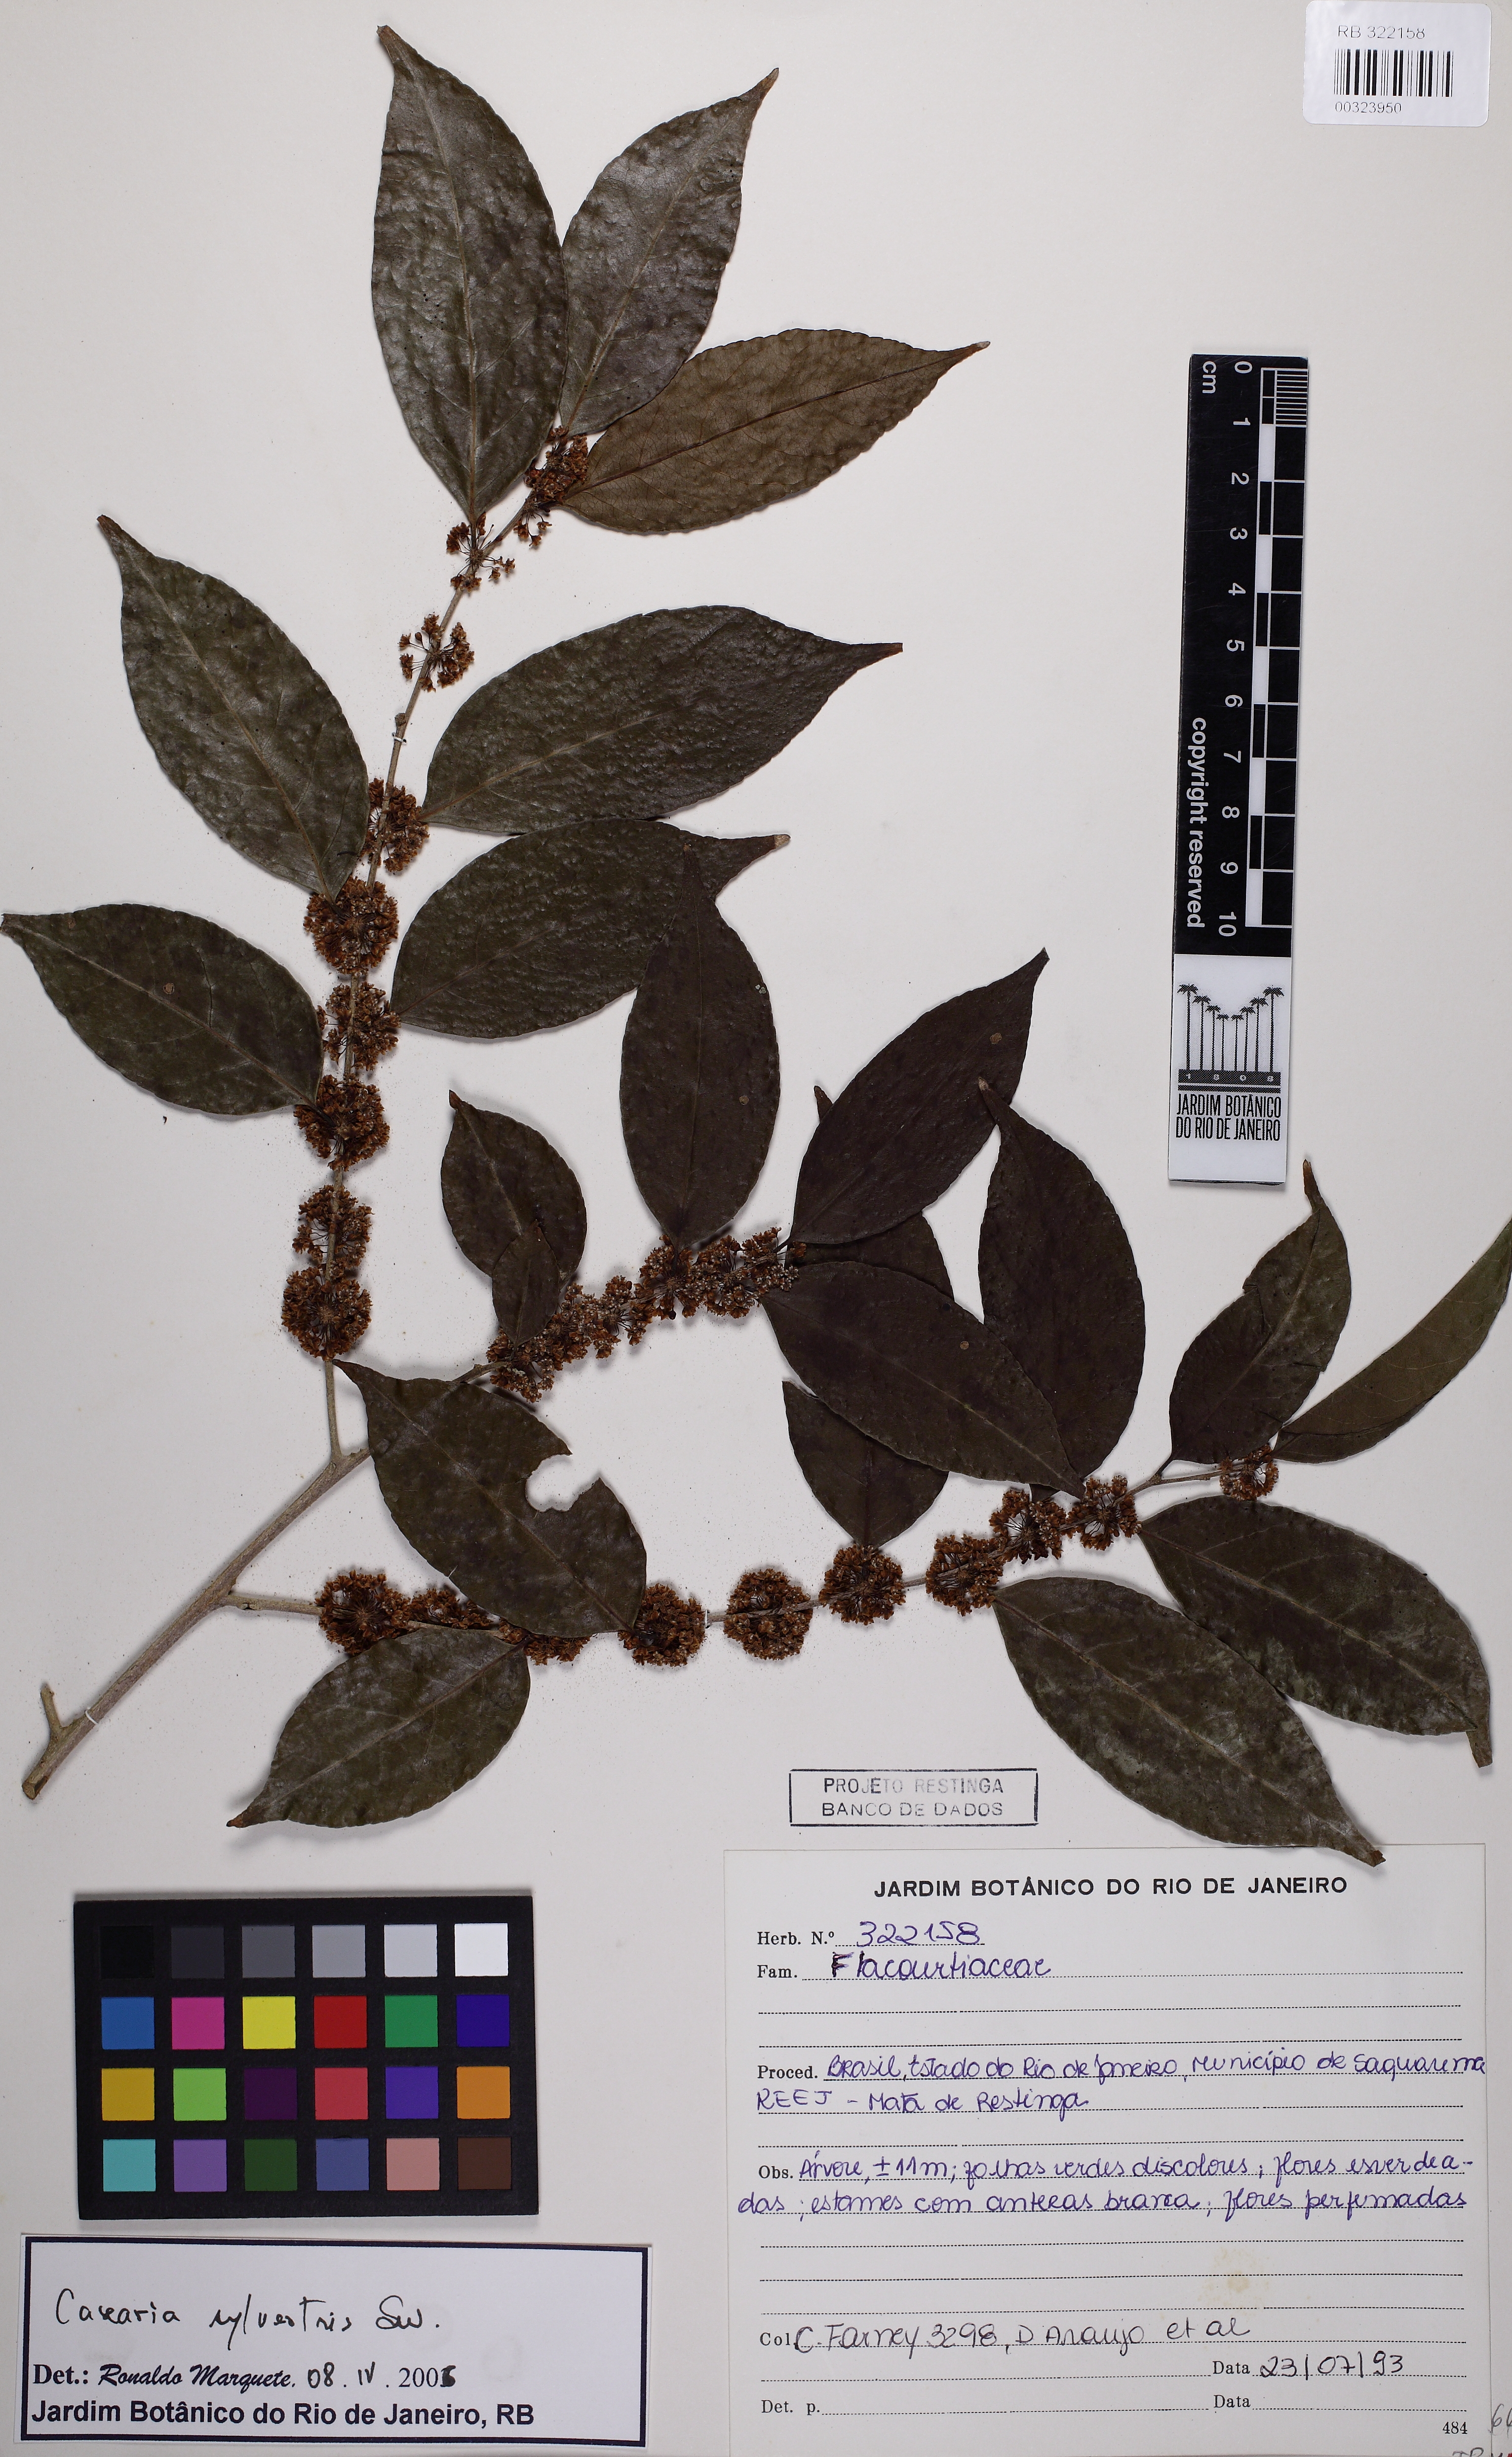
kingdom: Plantae
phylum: Tracheophyta
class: Magnoliopsida
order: Malpighiales
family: Salicaceae
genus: Casearia
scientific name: Casearia sylvestris
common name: Wild sage
